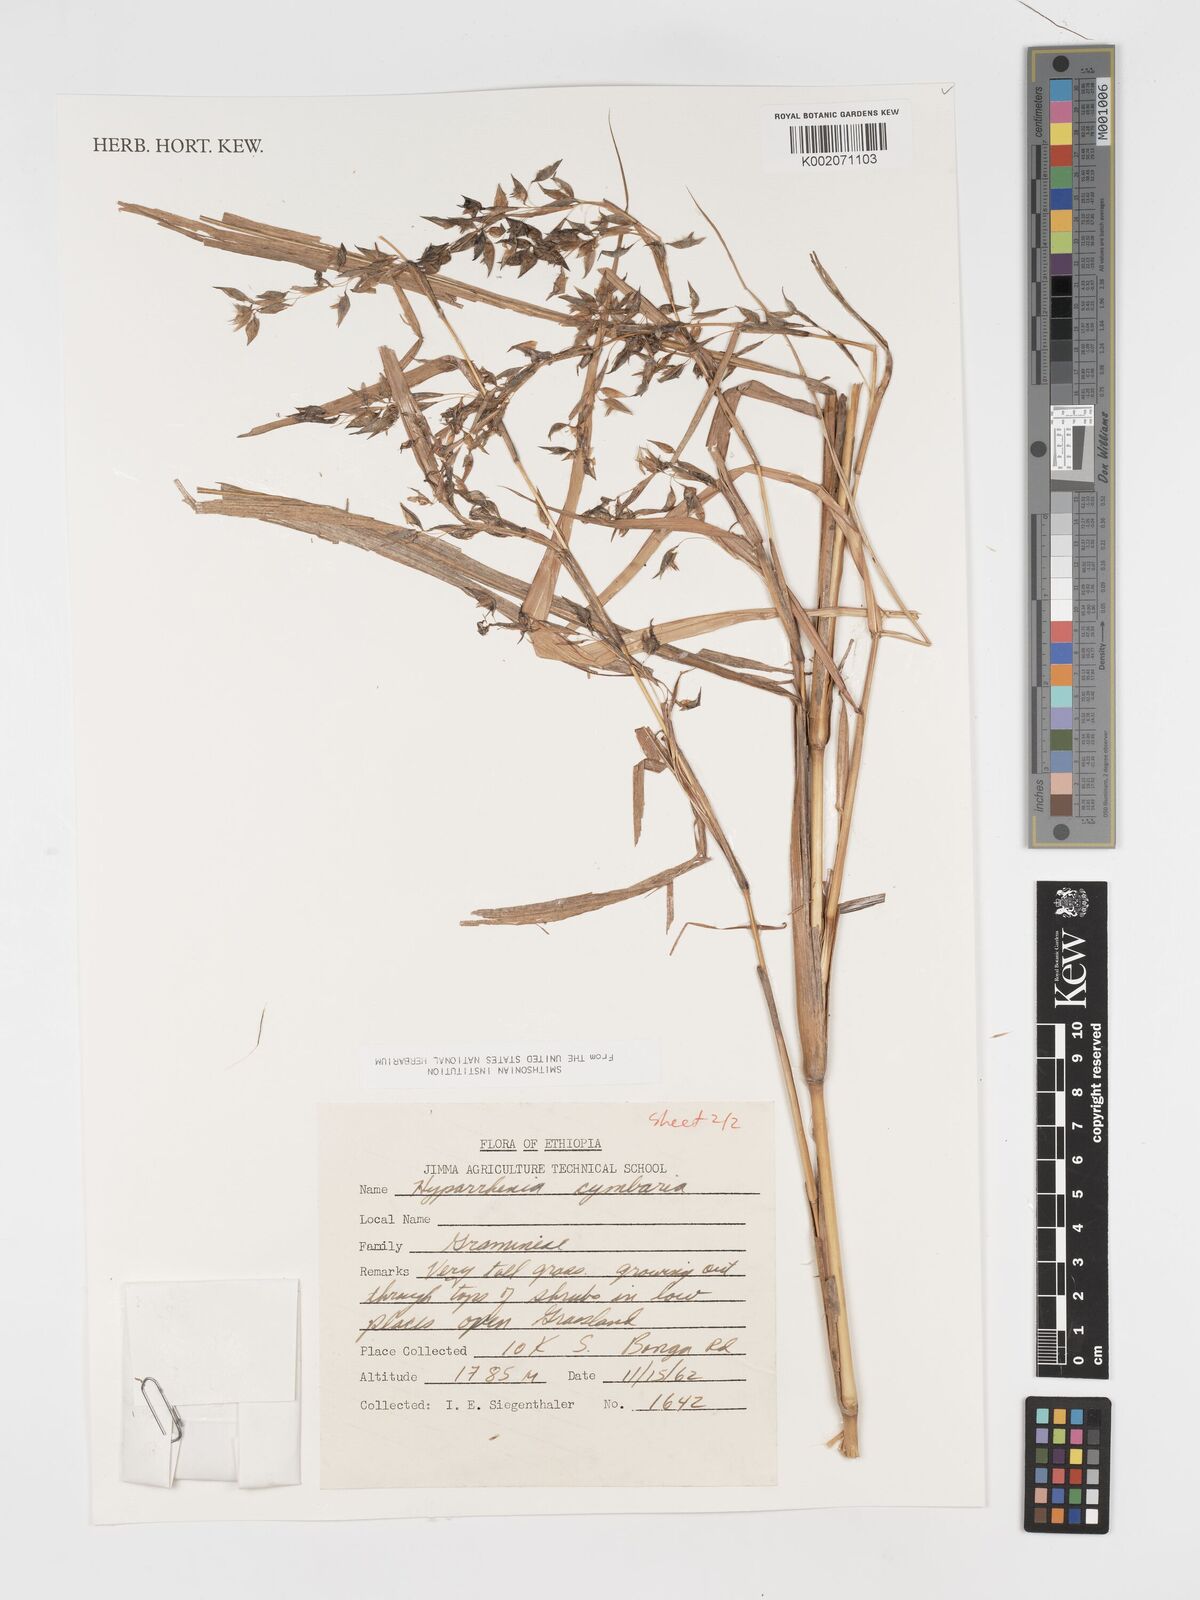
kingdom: Plantae
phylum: Tracheophyta
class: Liliopsida
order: Poales
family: Poaceae
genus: Hyparrhenia
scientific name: Hyparrhenia cymbaria
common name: Boat thatching grass
